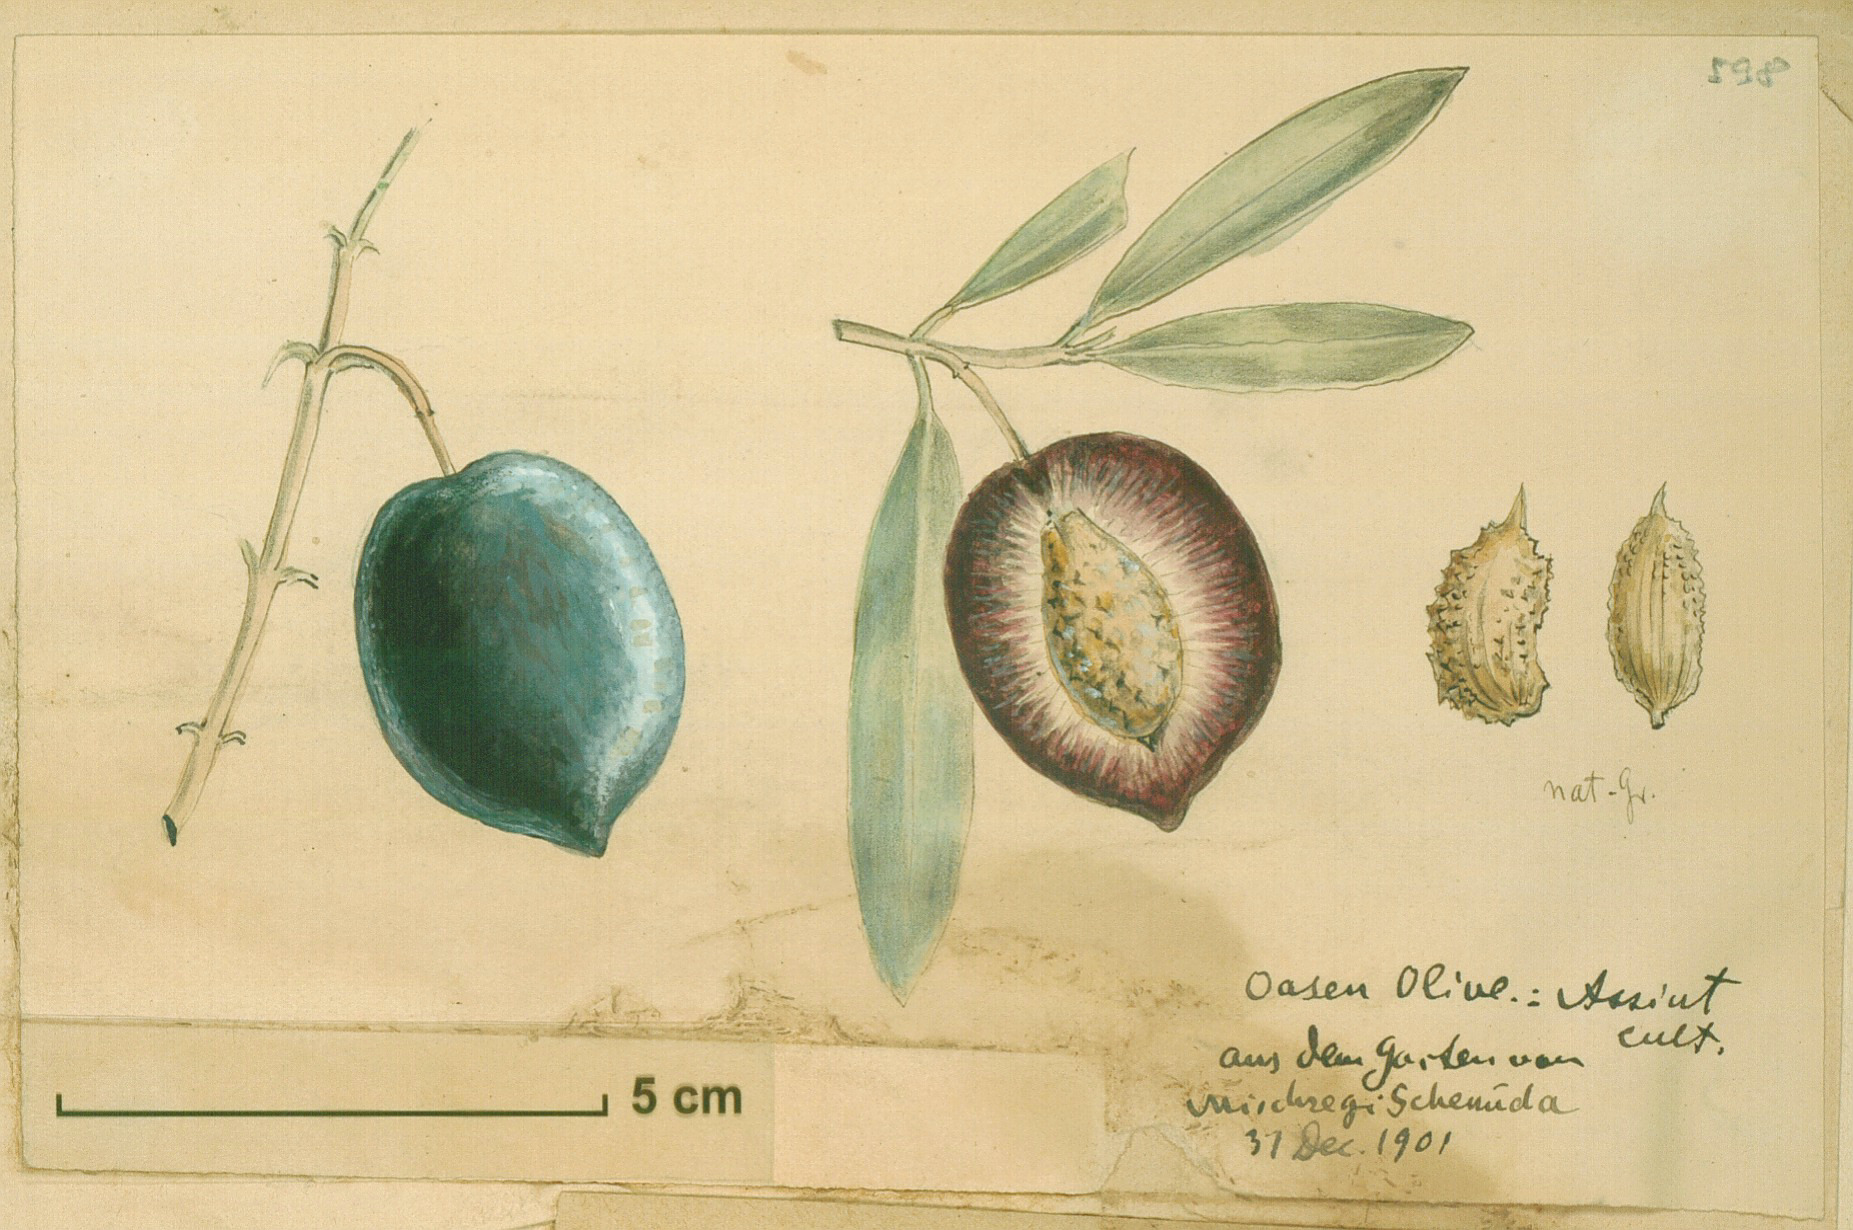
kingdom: Plantae
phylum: Tracheophyta
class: Magnoliopsida
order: Lamiales
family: Oleaceae
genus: Olea
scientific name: Olea europaea
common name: Olive
